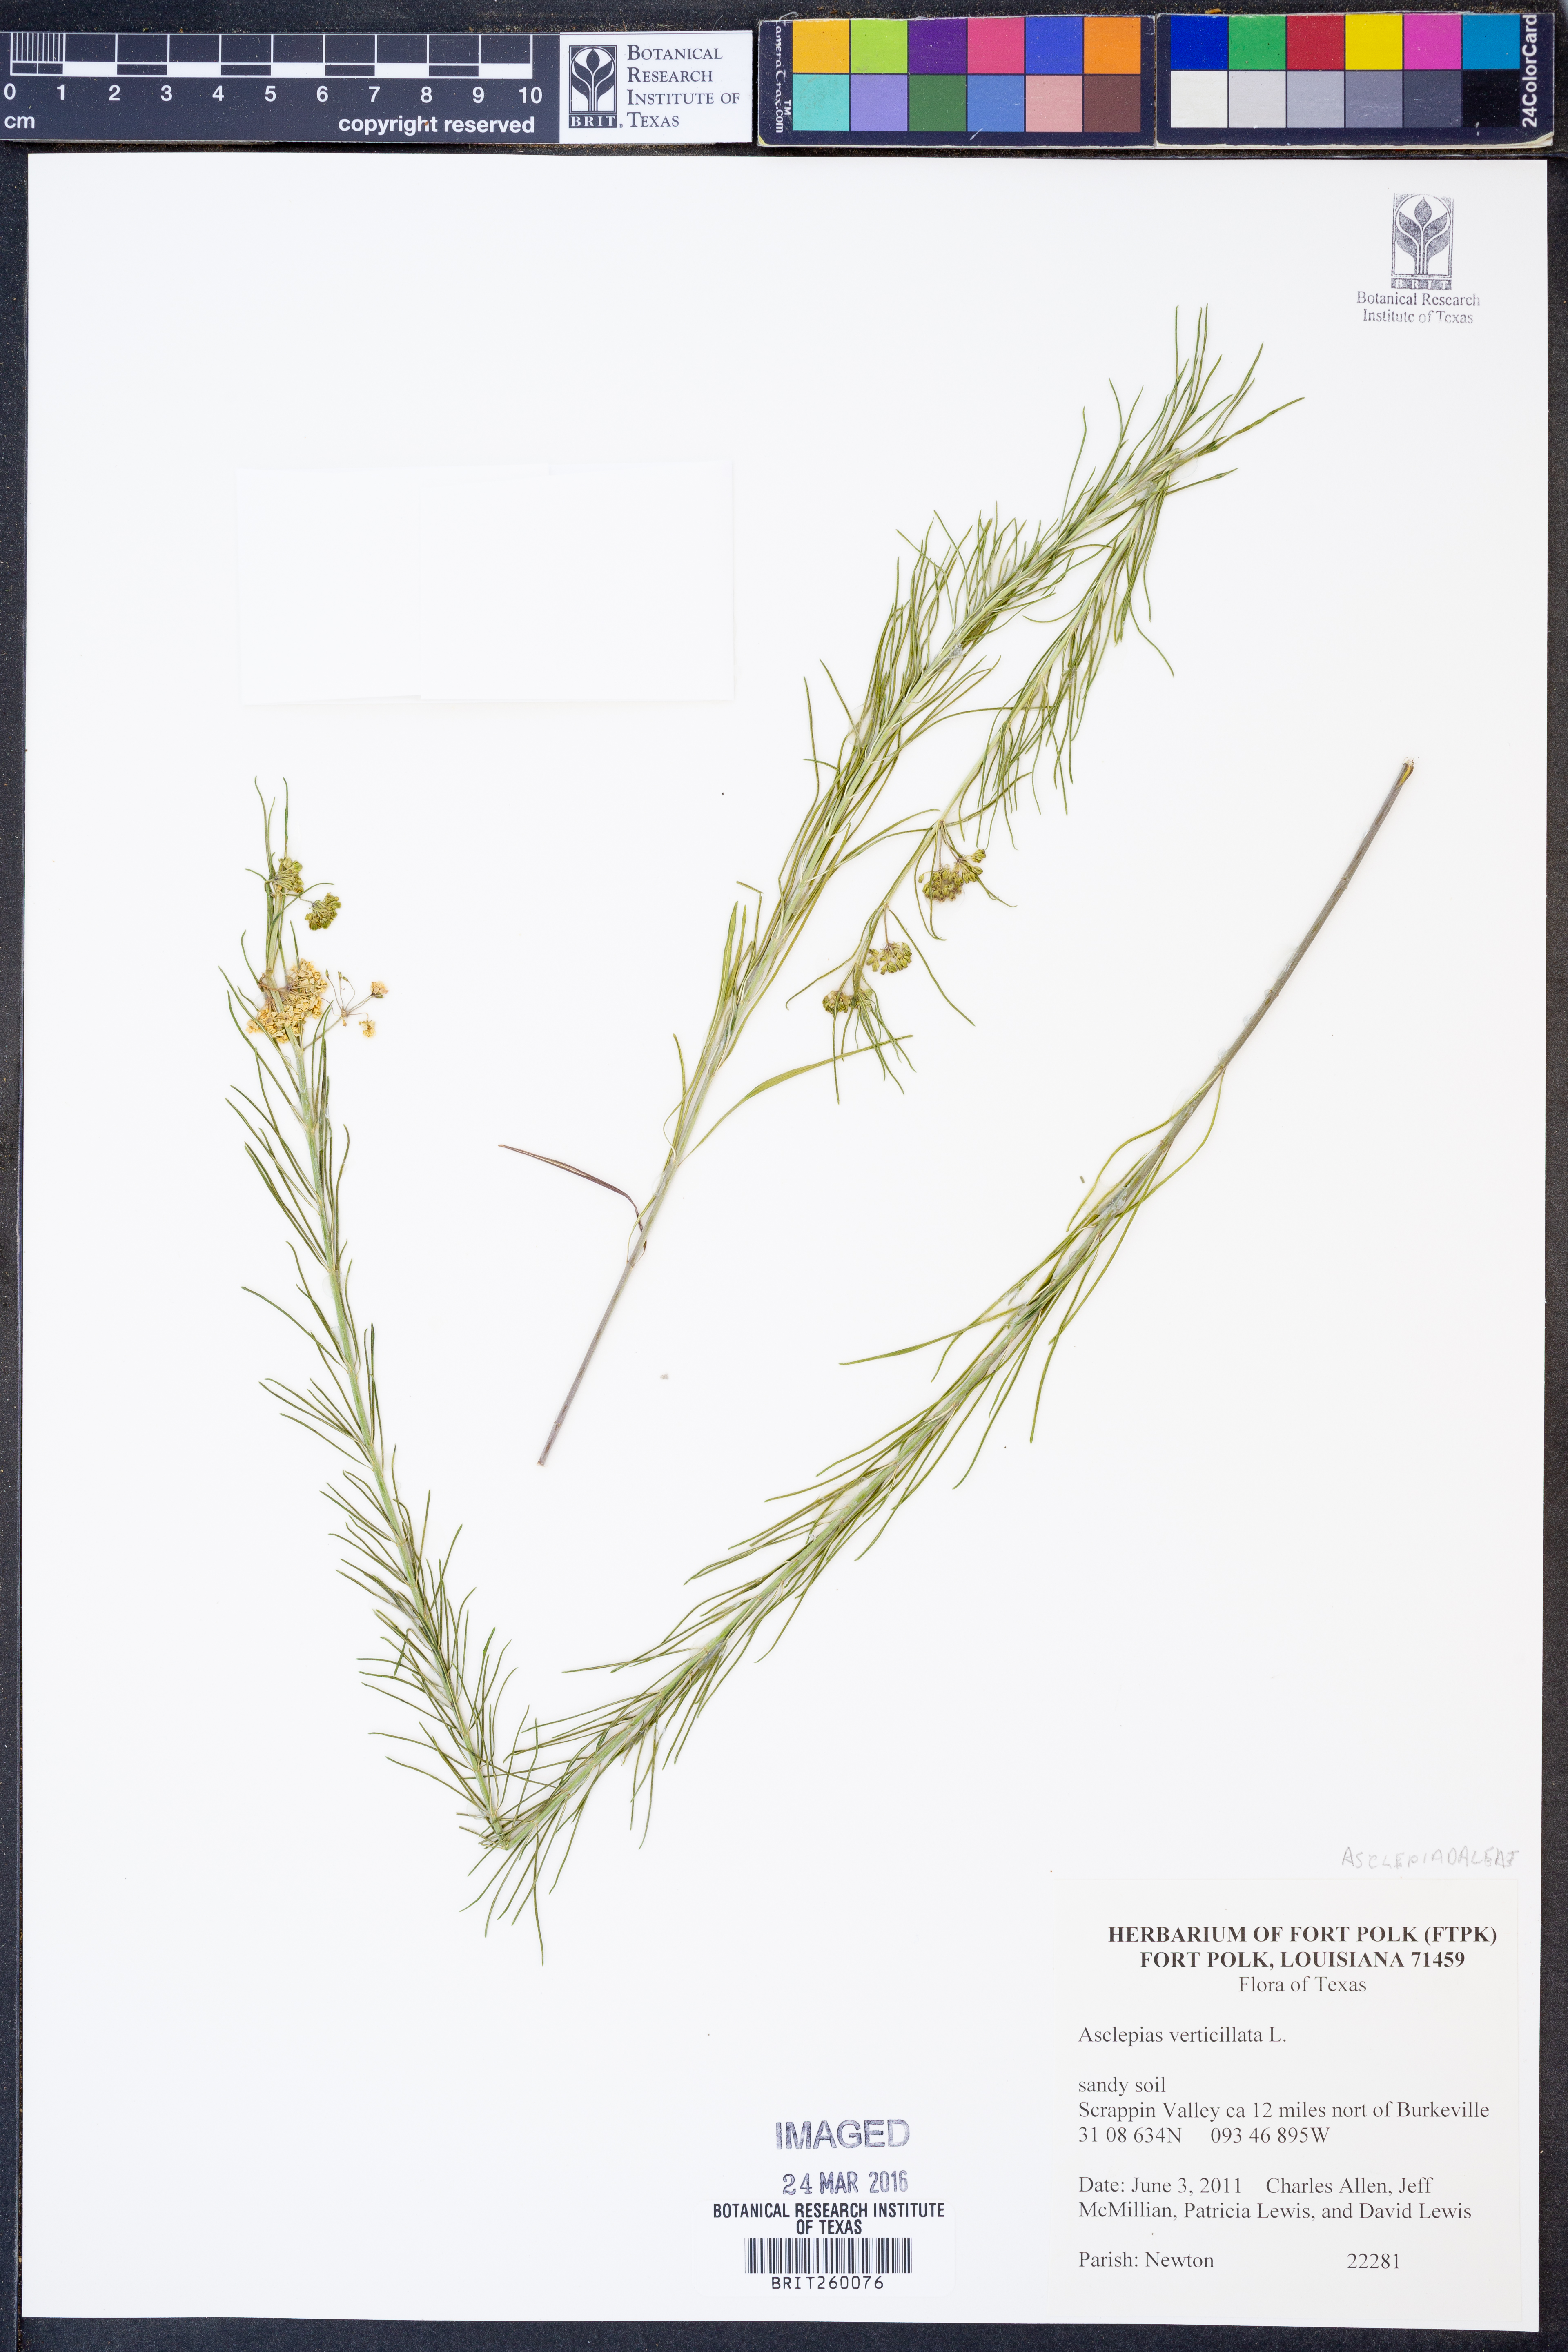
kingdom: Plantae
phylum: Tracheophyta
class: Magnoliopsida
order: Gentianales
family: Apocynaceae
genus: Asclepias
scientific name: Asclepias verticillata
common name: Eastern whorled milkweed
